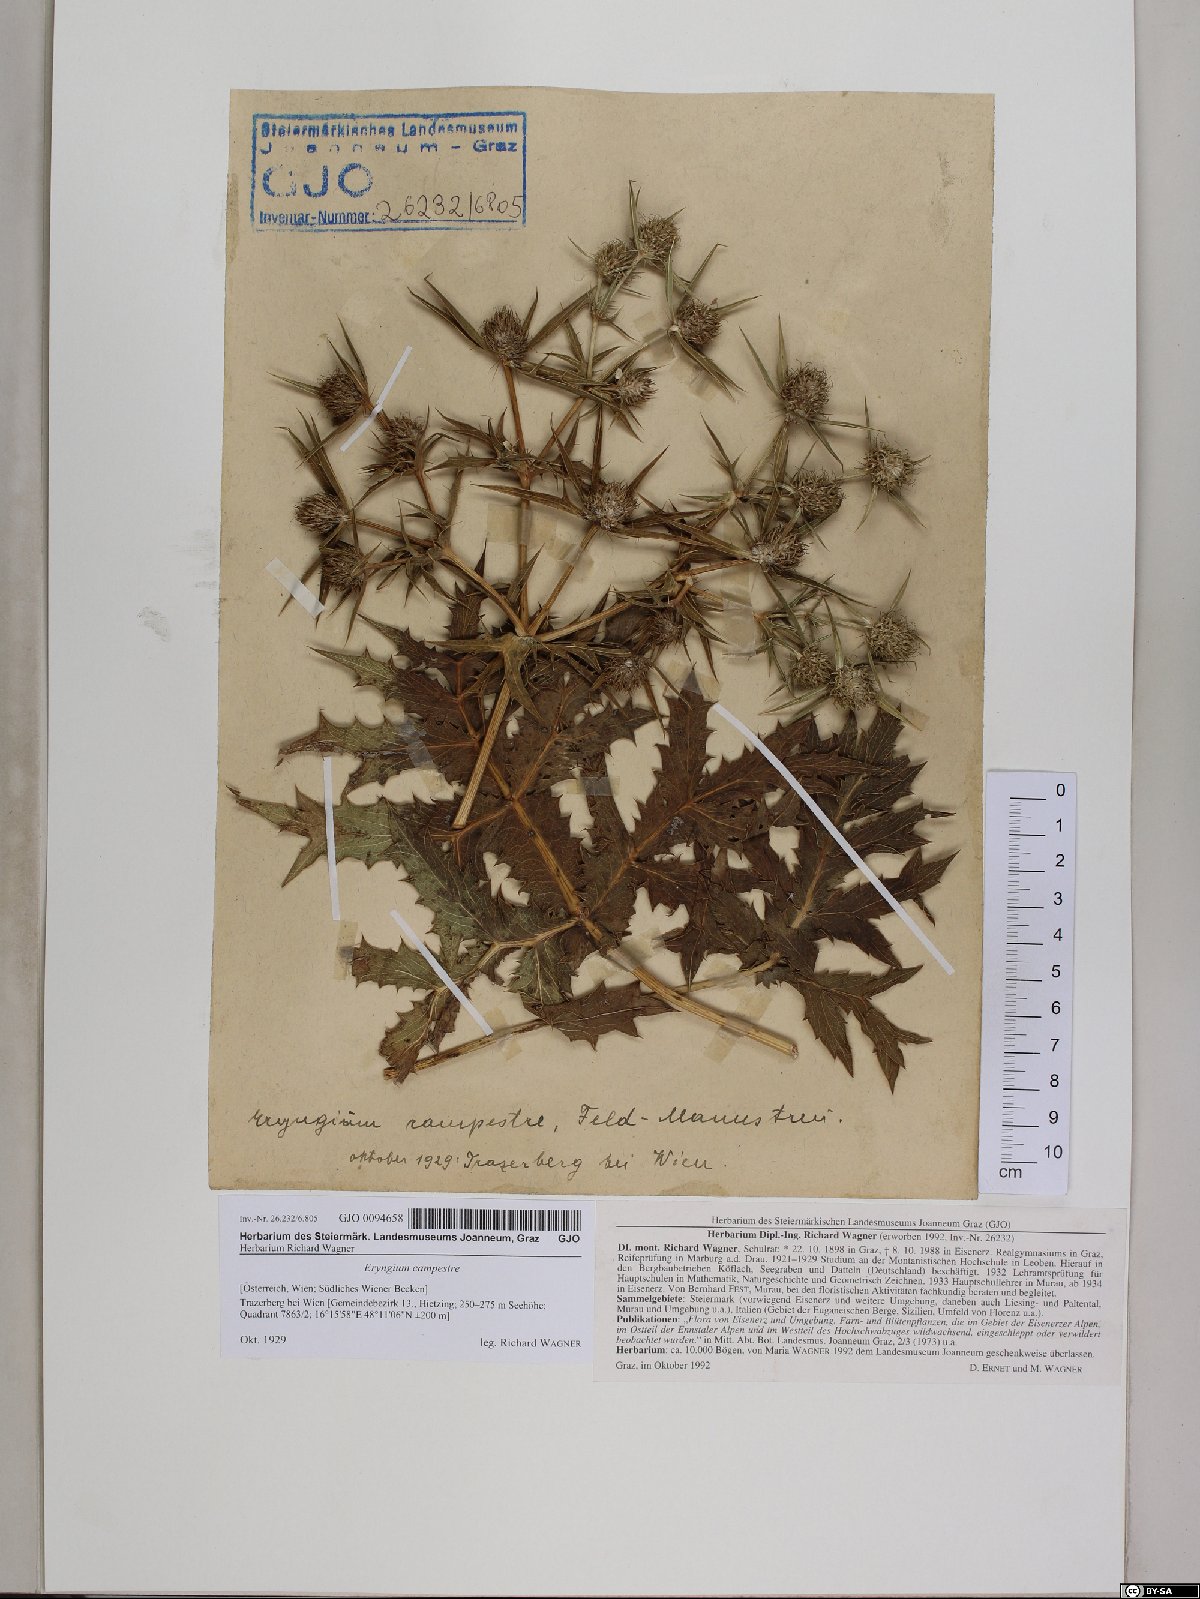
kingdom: Plantae
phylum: Tracheophyta
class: Magnoliopsida
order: Apiales
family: Apiaceae
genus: Eryngium
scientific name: Eryngium campestre
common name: Field eryngo
